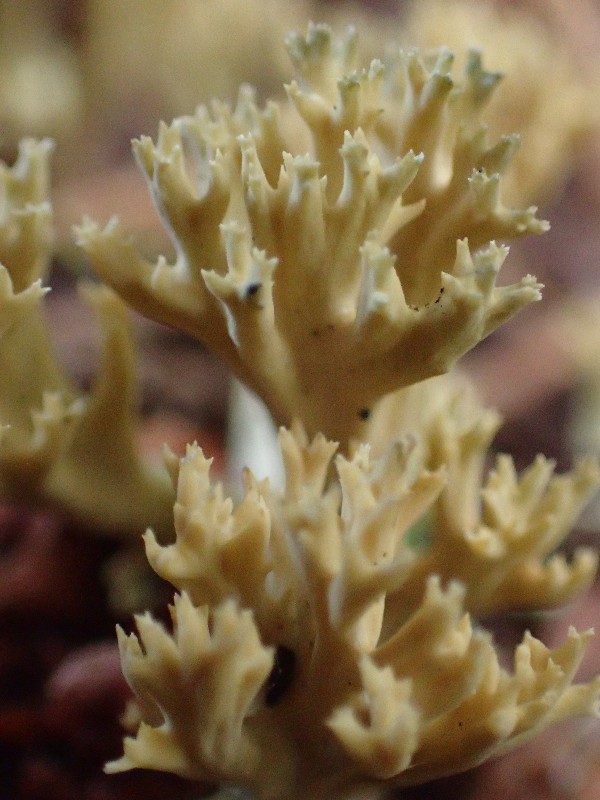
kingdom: Fungi
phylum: Basidiomycota
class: Agaricomycetes
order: Gomphales
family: Gomphaceae
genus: Phaeoclavulina
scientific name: Phaeoclavulina eumorpha
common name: gran-koralsvamp
